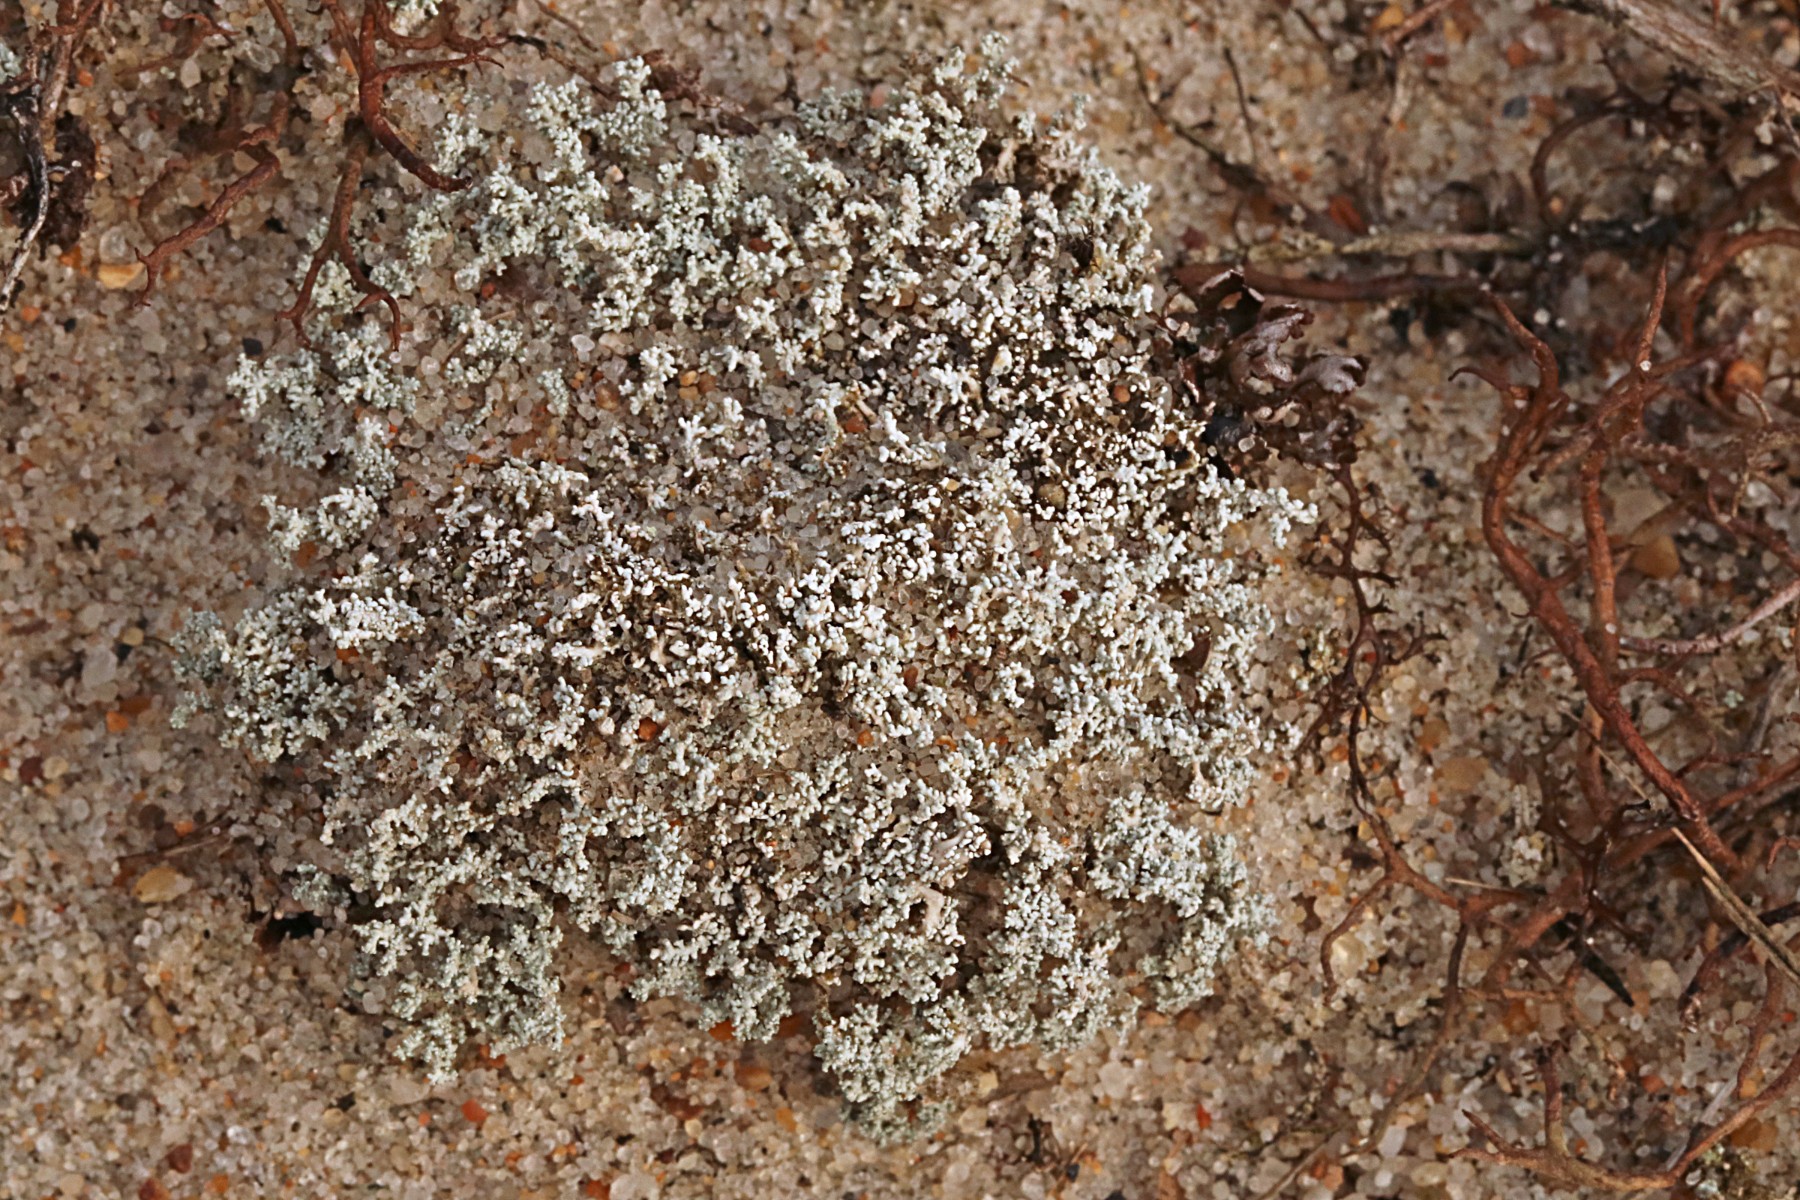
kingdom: Fungi
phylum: Ascomycota
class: Lecanoromycetes
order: Lecanorales
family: Stereocaulaceae
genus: Stereocaulon
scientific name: Stereocaulon condensatum
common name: lav korallav
